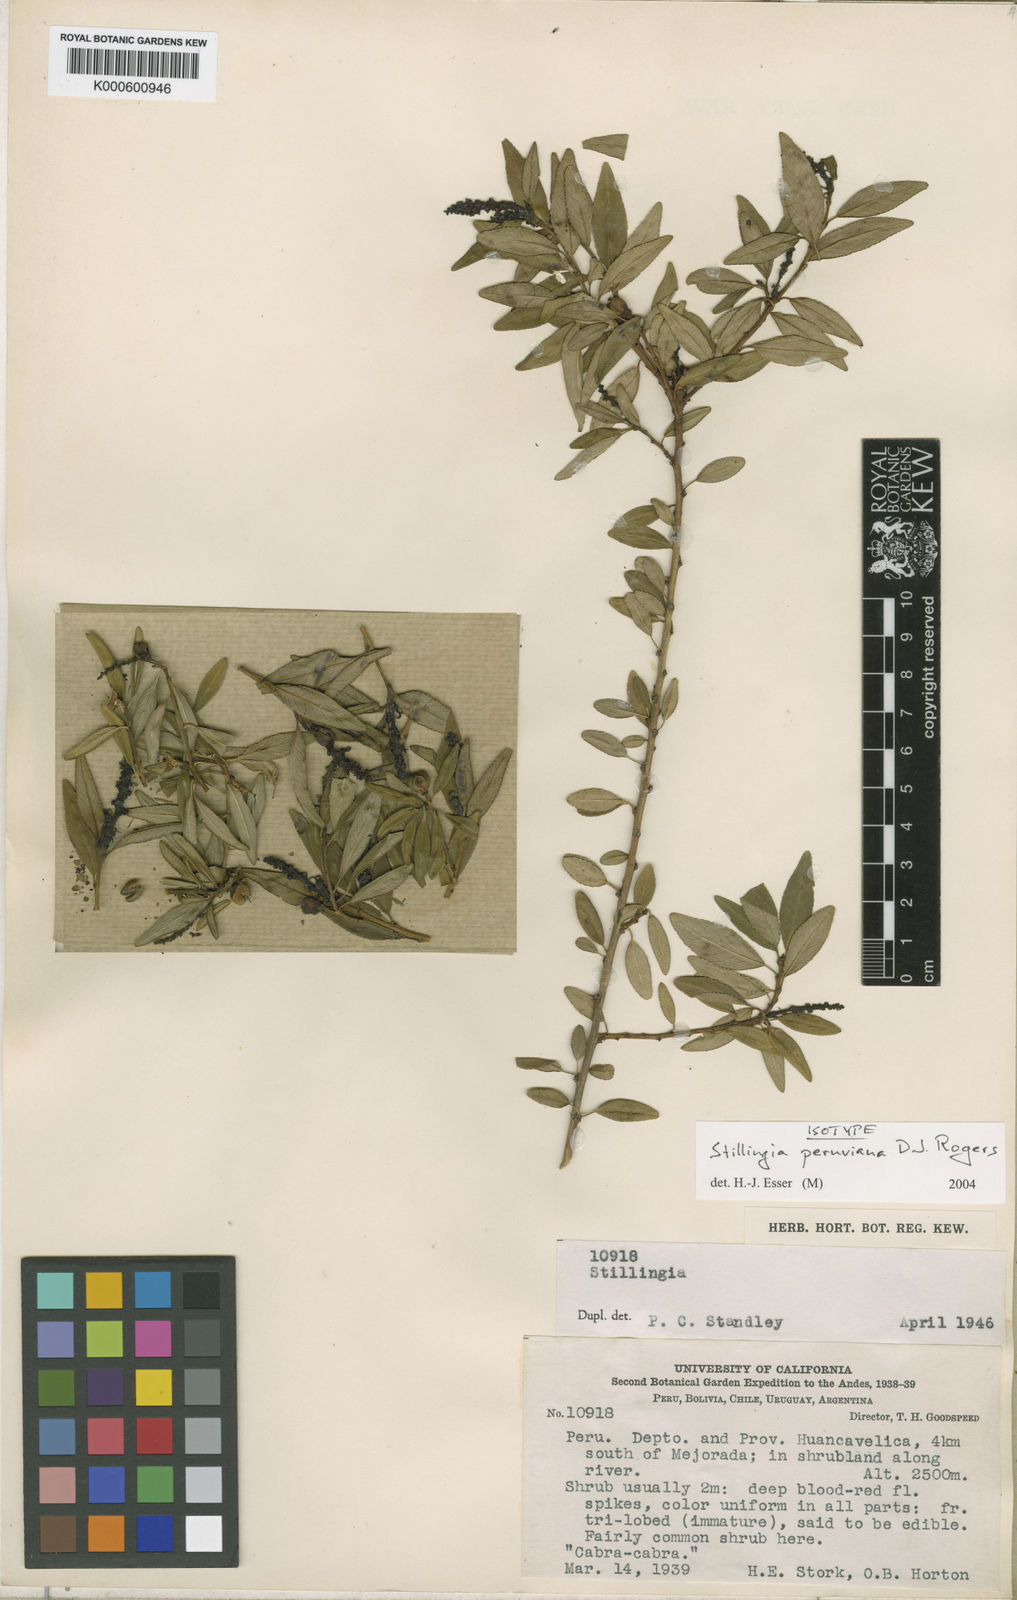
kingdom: Plantae
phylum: Tracheophyta
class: Magnoliopsida
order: Malpighiales
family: Euphorbiaceae
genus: Stillingia
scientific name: Stillingia peruviana
